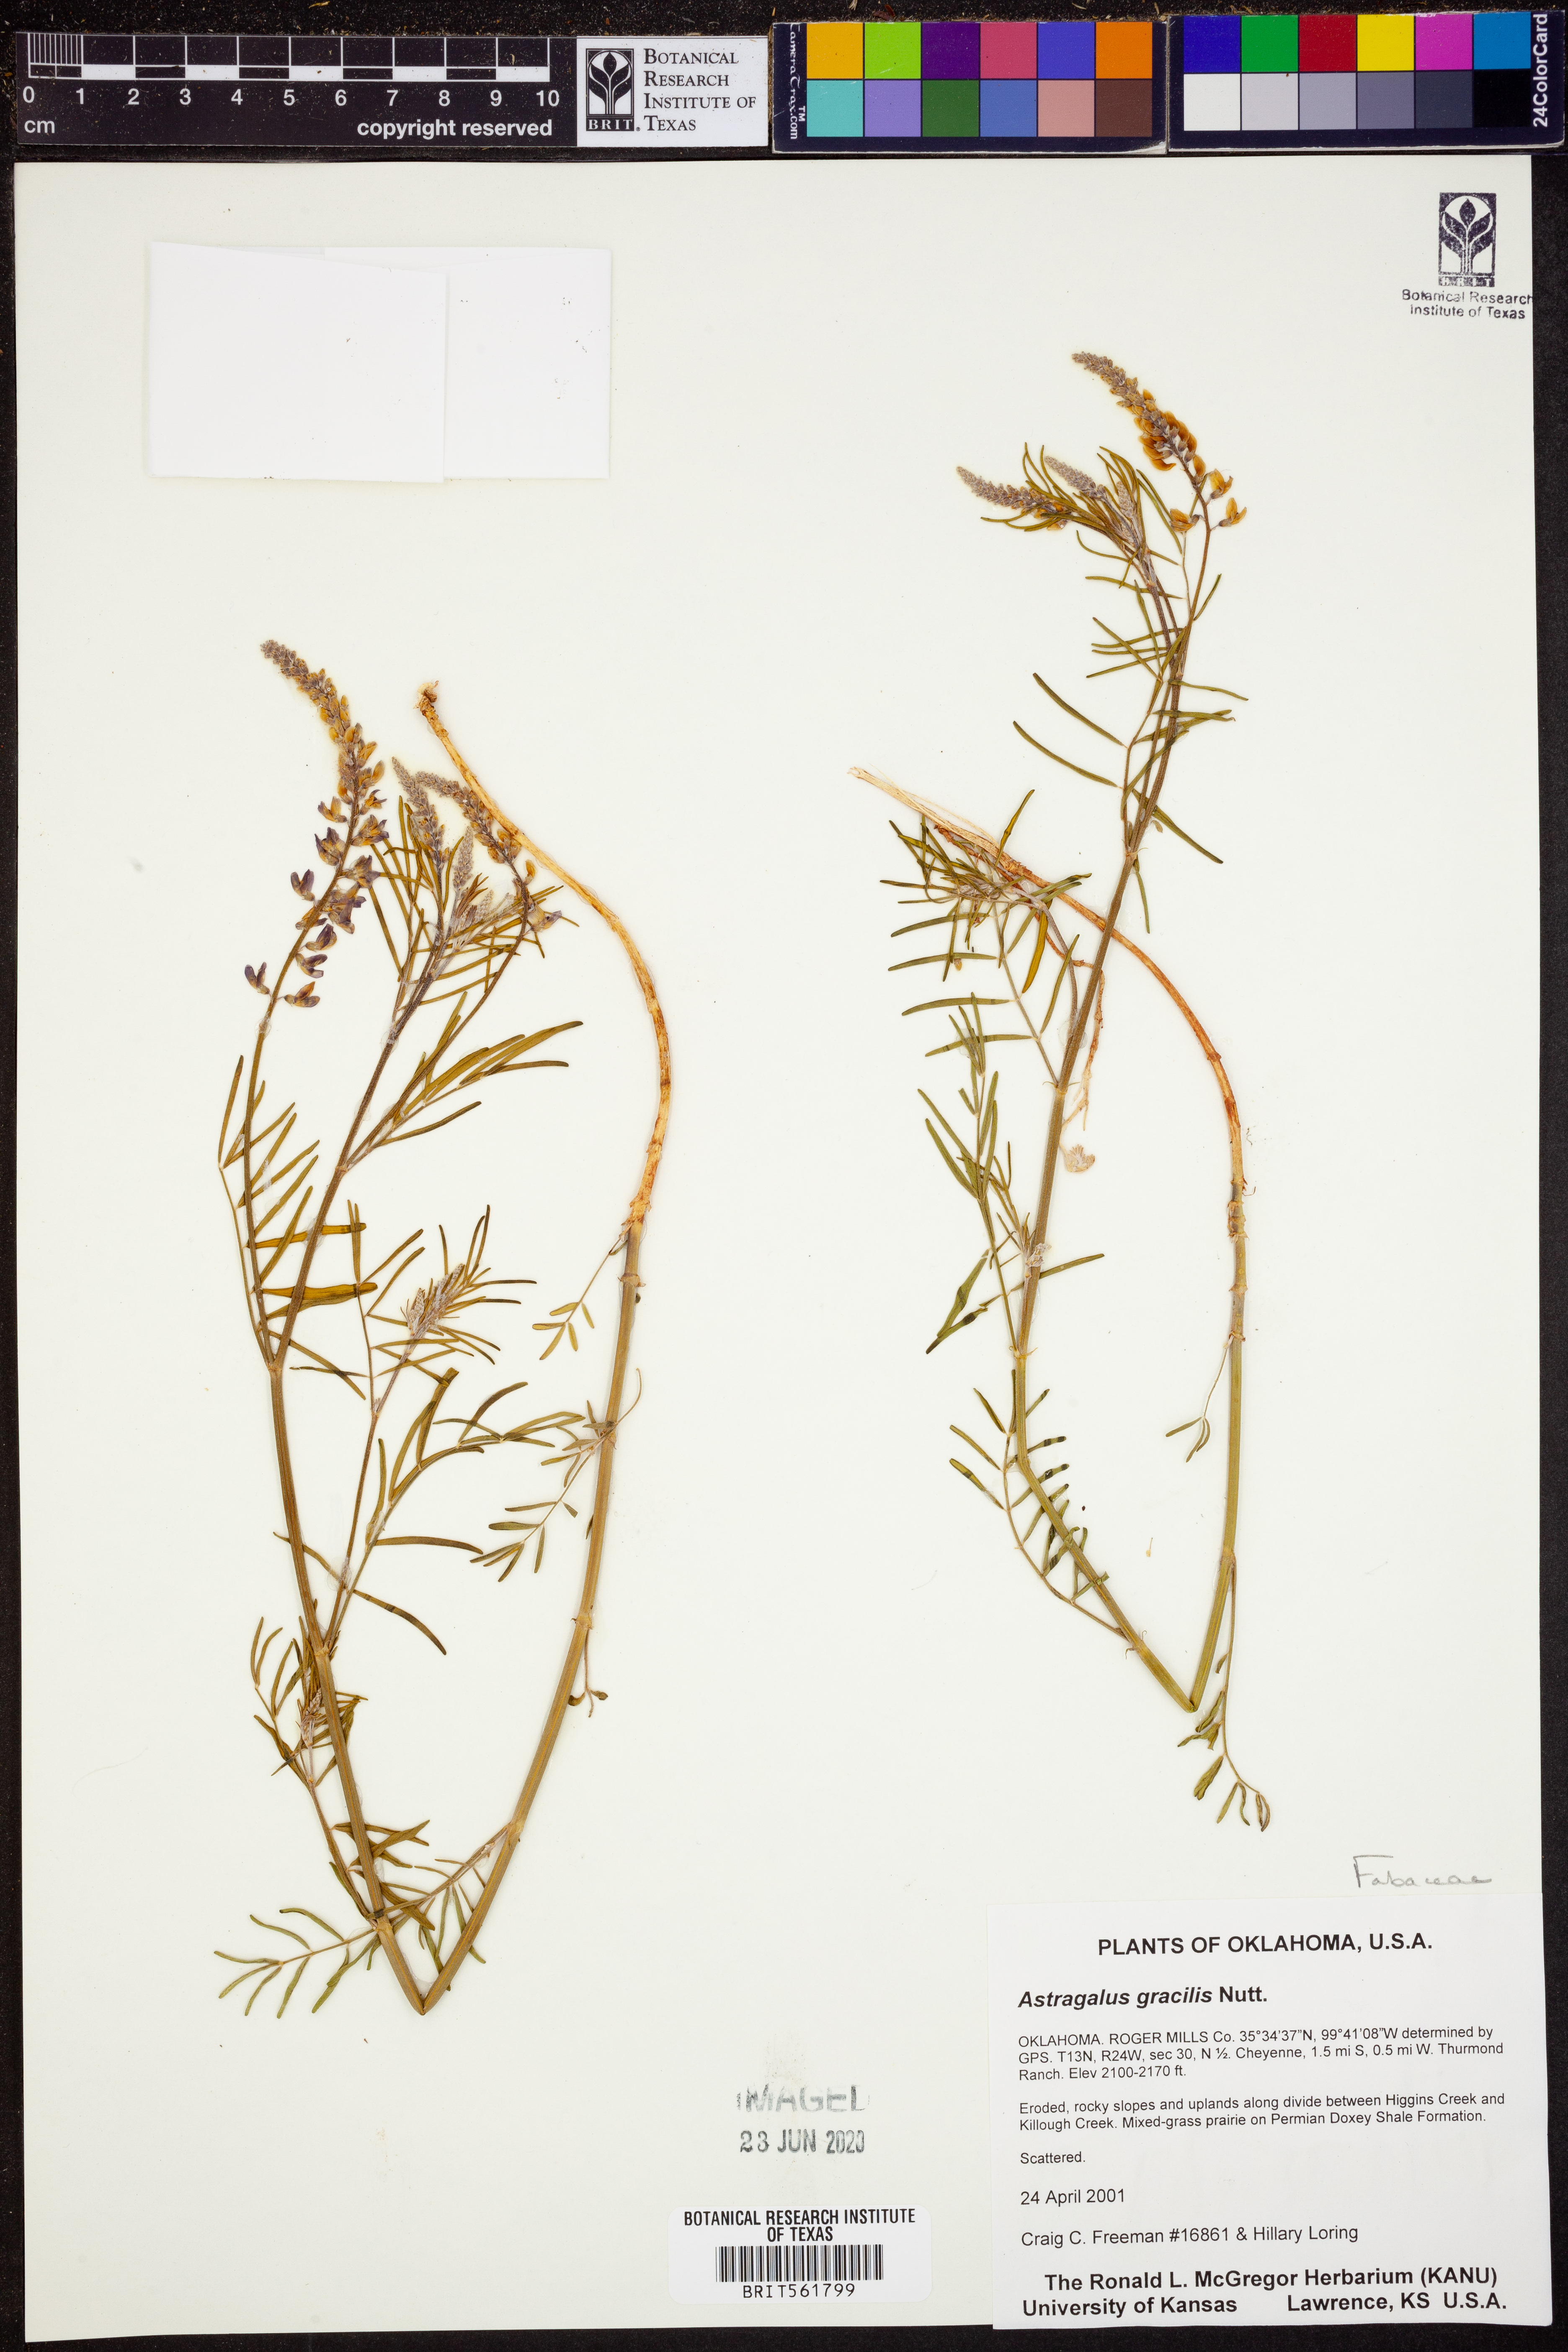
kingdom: Plantae
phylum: Tracheophyta
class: Magnoliopsida
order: Fabales
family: Fabaceae
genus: Astragalus
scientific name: Astragalus gracilis
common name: Slender milk-vetch
